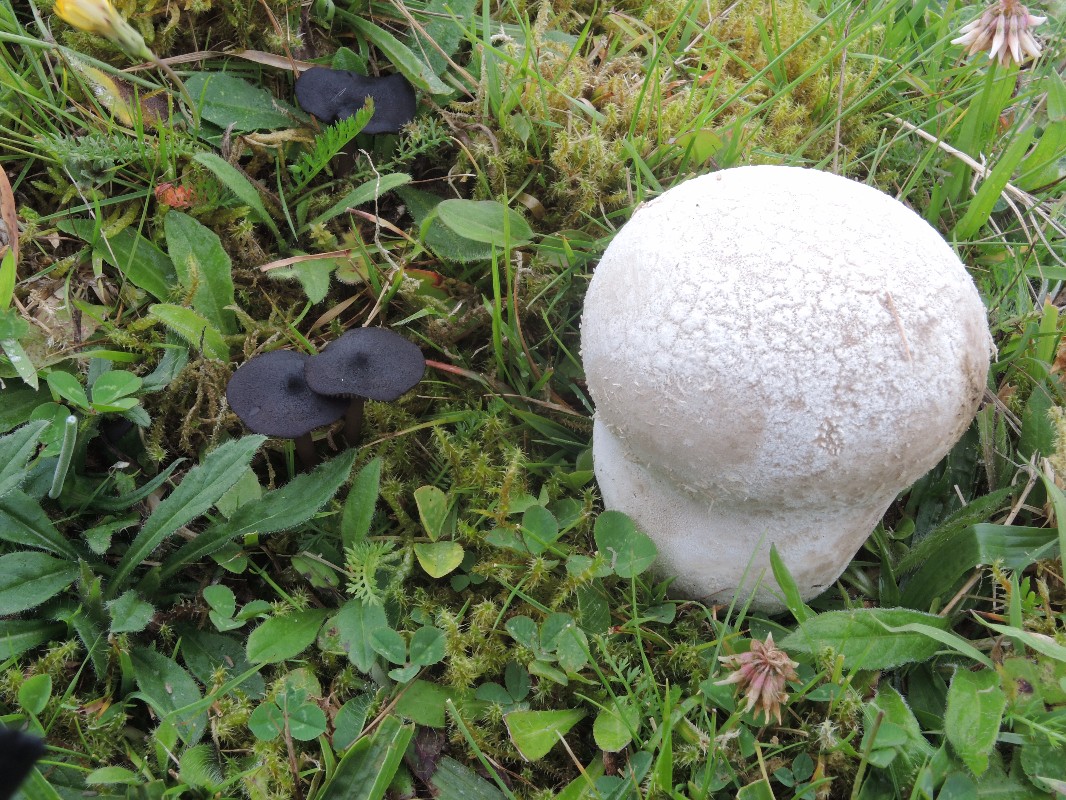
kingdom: Fungi
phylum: Basidiomycota
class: Agaricomycetes
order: Agaricales
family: Lycoperdaceae
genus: Bovistella
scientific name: Bovistella utriformis
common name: skællet støvbold
